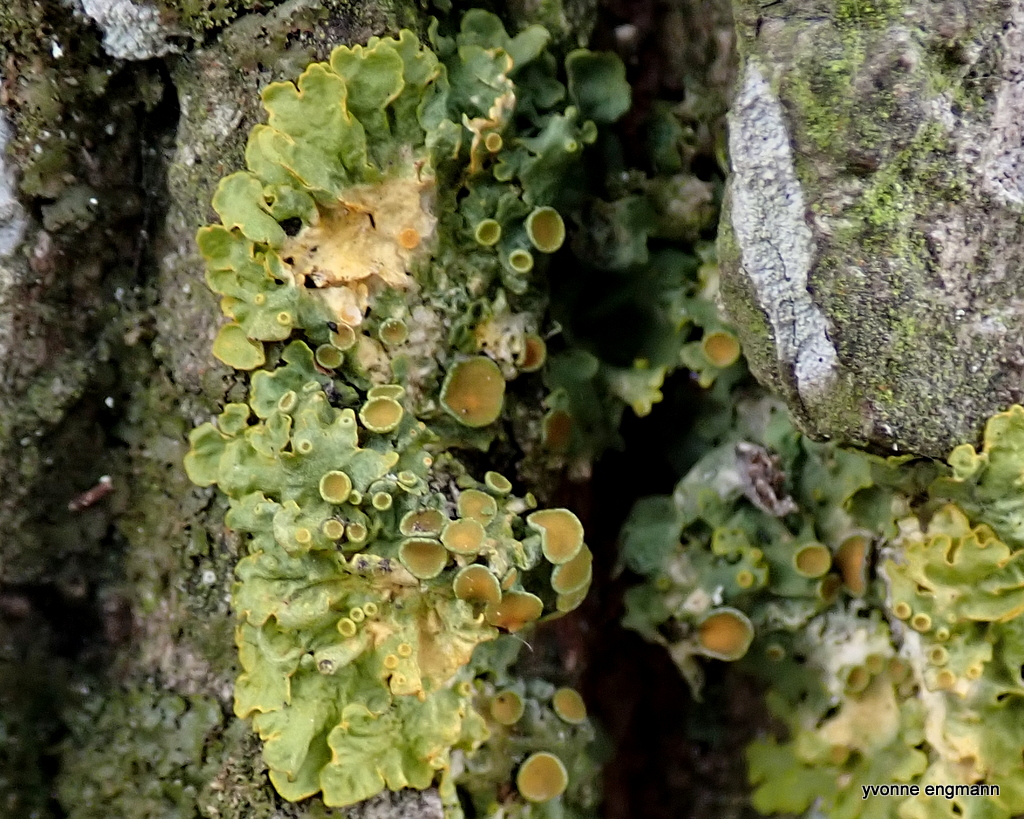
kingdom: Fungi
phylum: Ascomycota
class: Lecanoromycetes
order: Teloschistales
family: Teloschistaceae
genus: Xanthoria
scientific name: Xanthoria parietina
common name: almindelig væggelav
